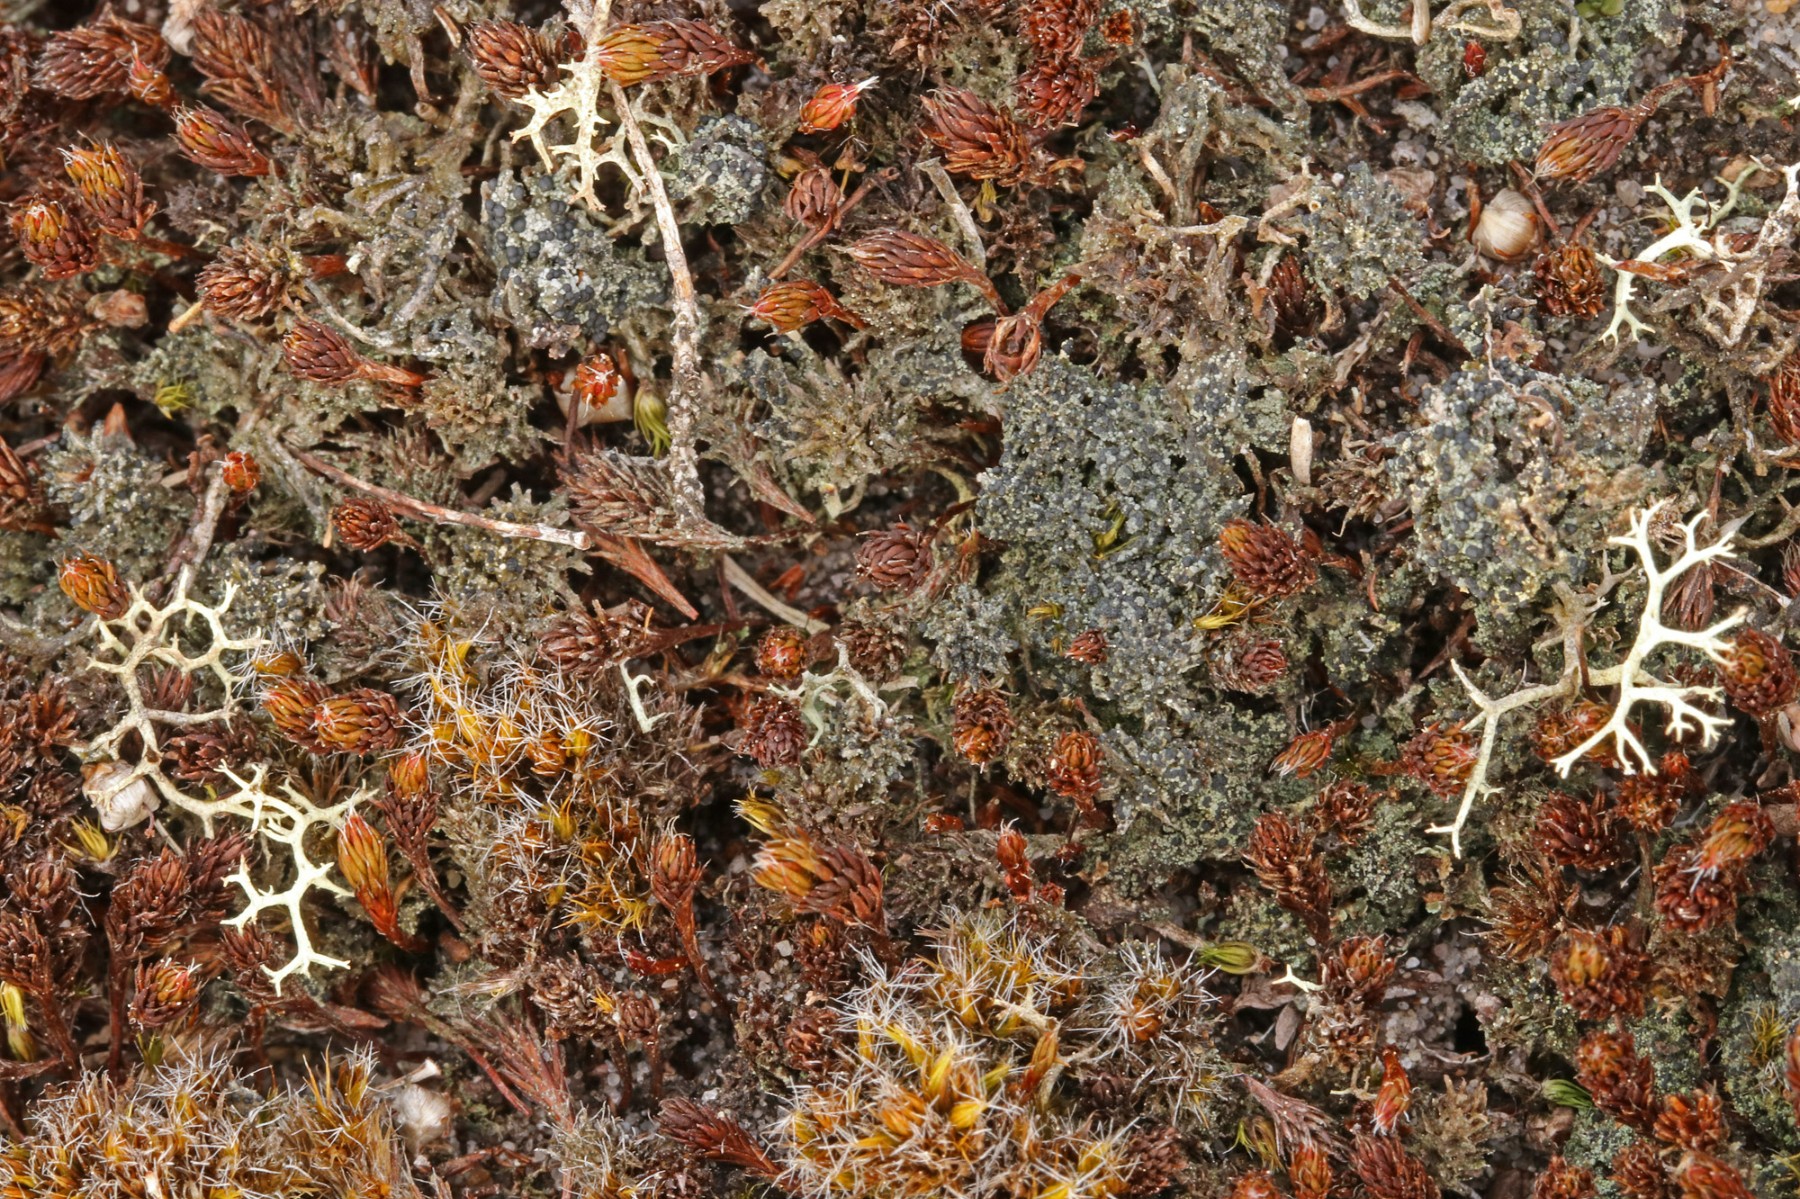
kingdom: Fungi
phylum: Ascomycota
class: Lecanoromycetes
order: Lecanorales
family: Byssolomataceae
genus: Micarea
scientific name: Micarea lignaria
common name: tørve-knaplav
